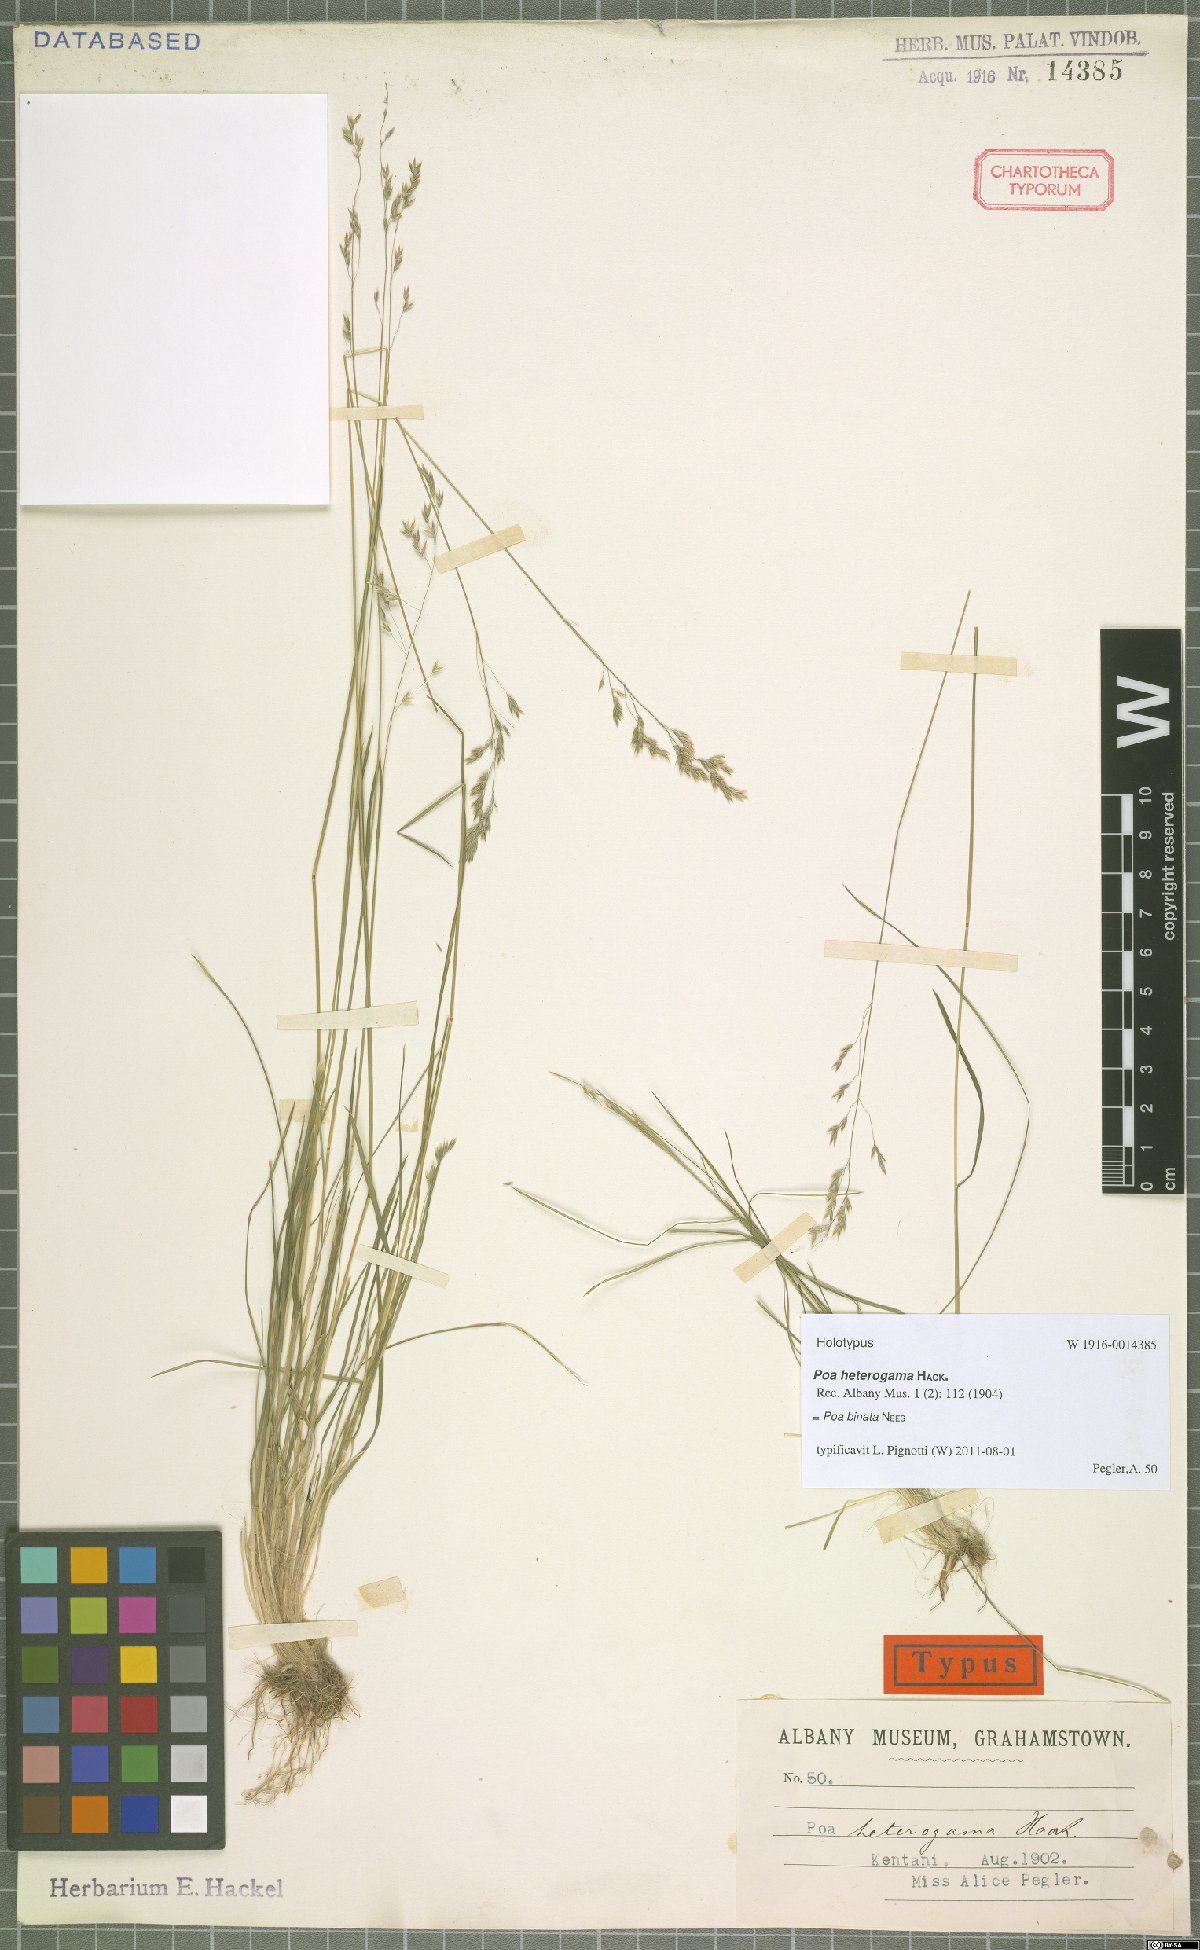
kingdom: Plantae
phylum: Tracheophyta
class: Liliopsida
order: Poales
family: Poaceae
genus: Poa
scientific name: Poa binata
